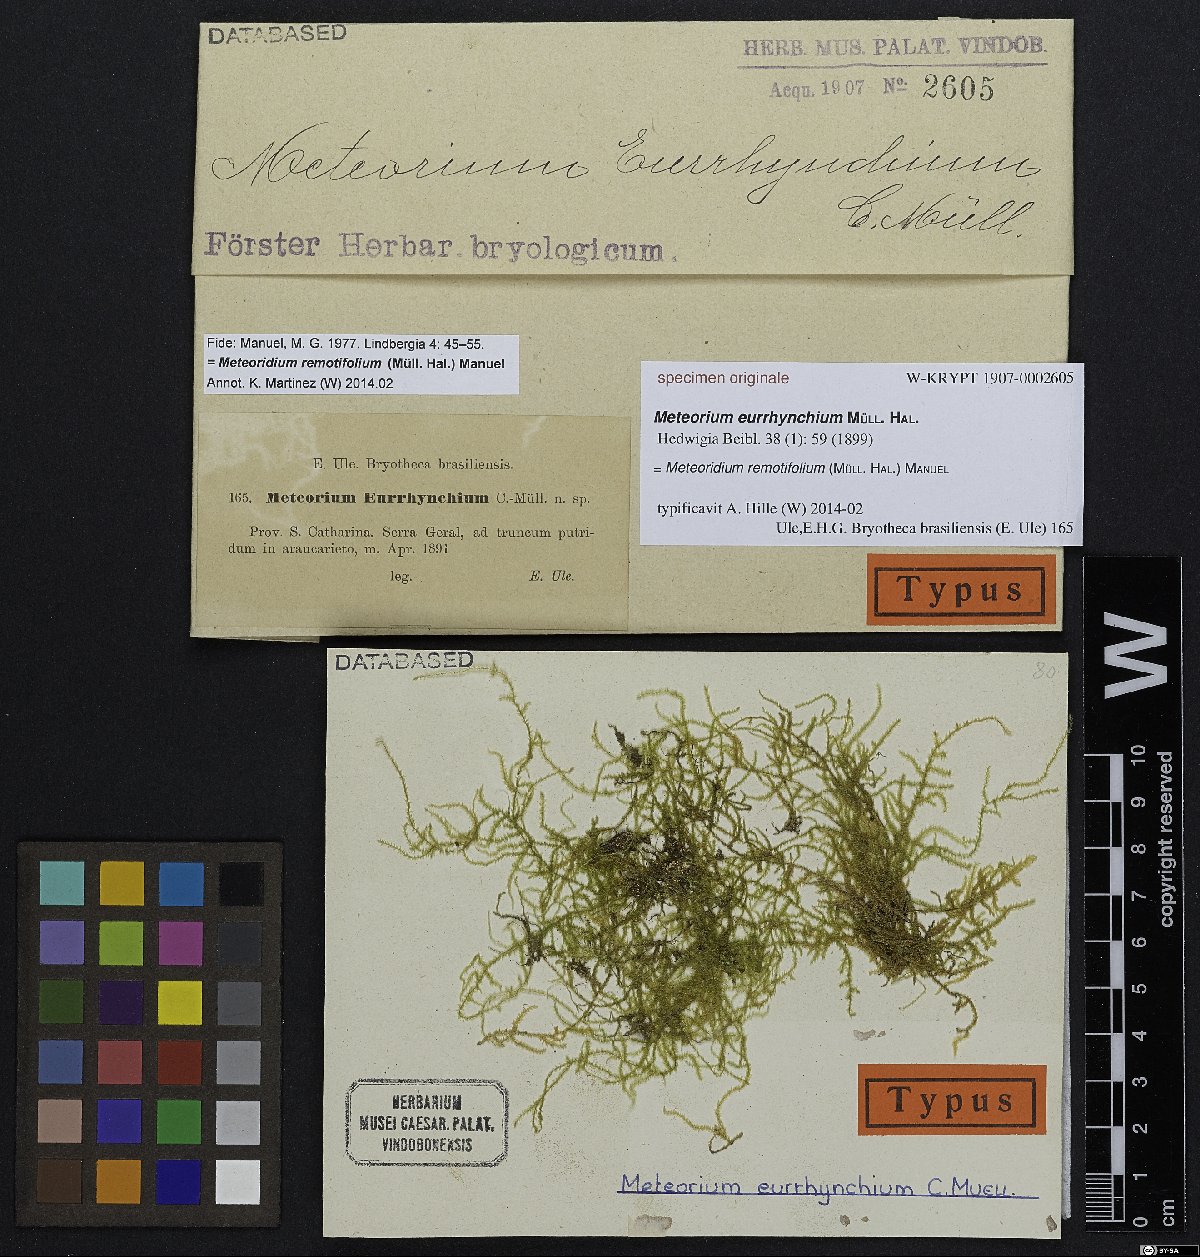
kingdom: Plantae
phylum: Bryophyta
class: Bryopsida
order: Hypnales
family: Meteoriaceae
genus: Meteorium
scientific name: Meteorium
